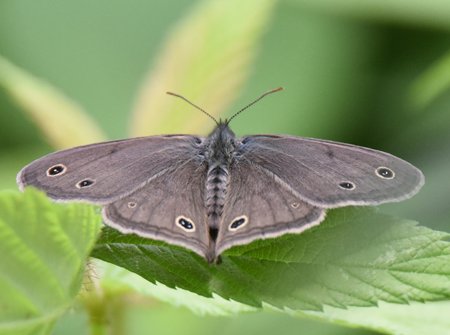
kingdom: Animalia
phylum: Arthropoda
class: Insecta
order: Lepidoptera
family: Nymphalidae
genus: Euptychia
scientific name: Euptychia cymela
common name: Little Wood Satyr
